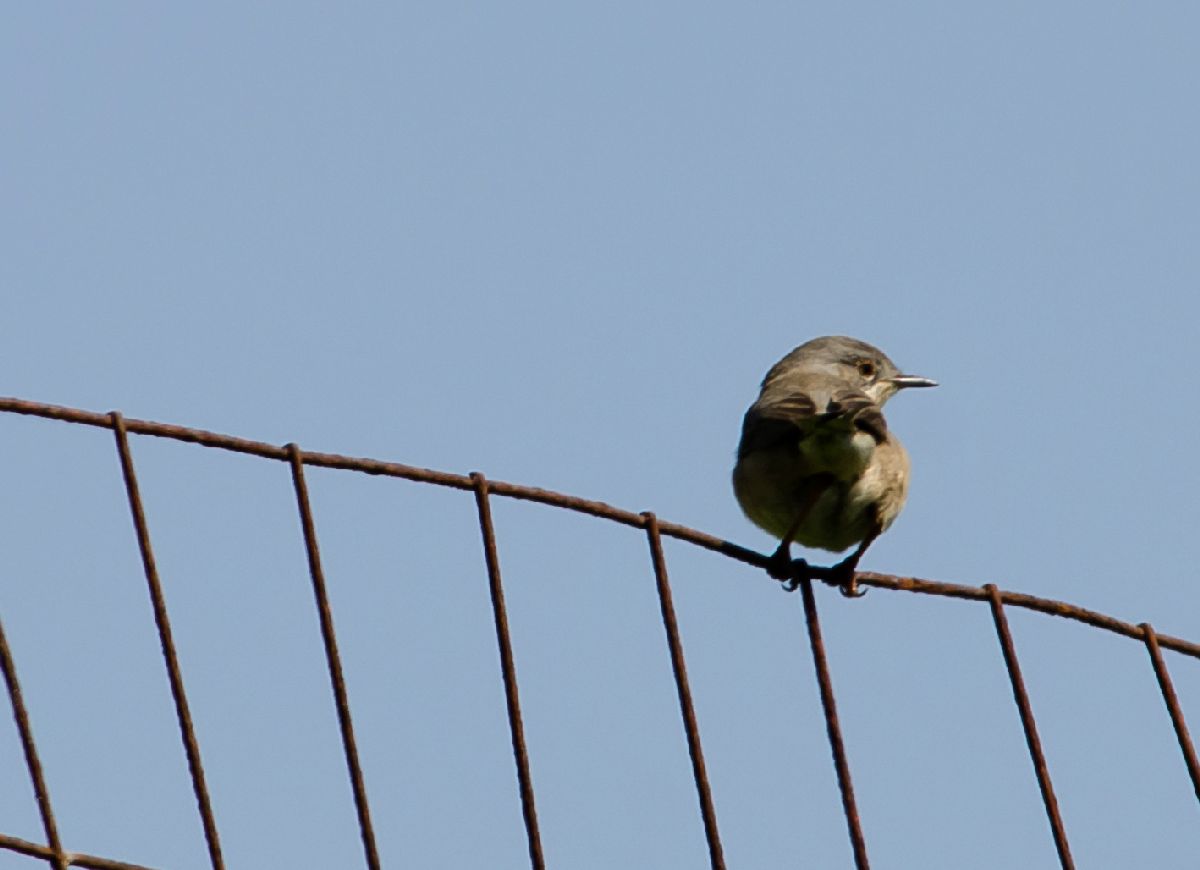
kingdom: Animalia
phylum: Chordata
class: Aves
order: Passeriformes
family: Sylviidae
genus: Sylvia
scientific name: Sylvia cantillans
